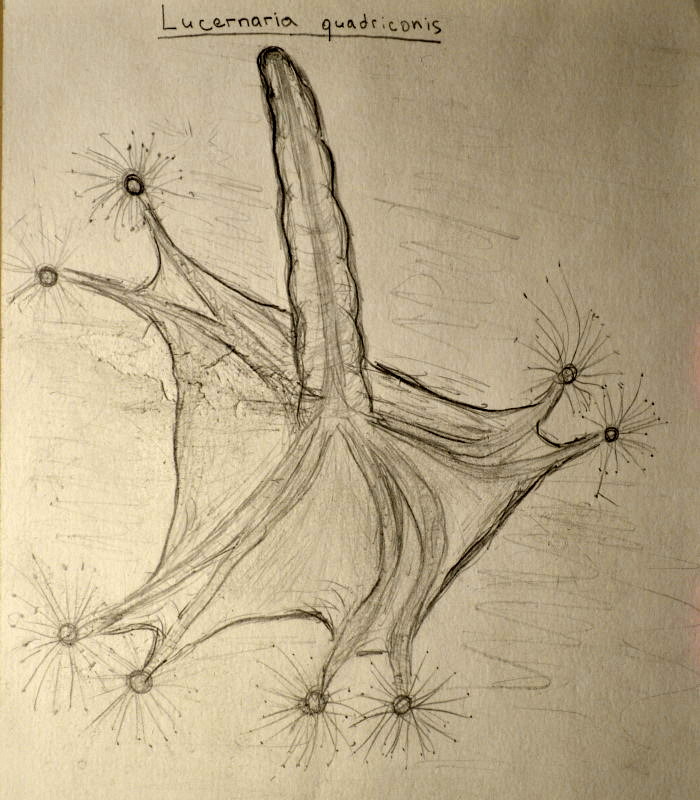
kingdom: Animalia
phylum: Cnidaria
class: Staurozoa
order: Stauromedusae
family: Lucernariidae
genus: Lucernaria
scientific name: Lucernaria quadricornis
